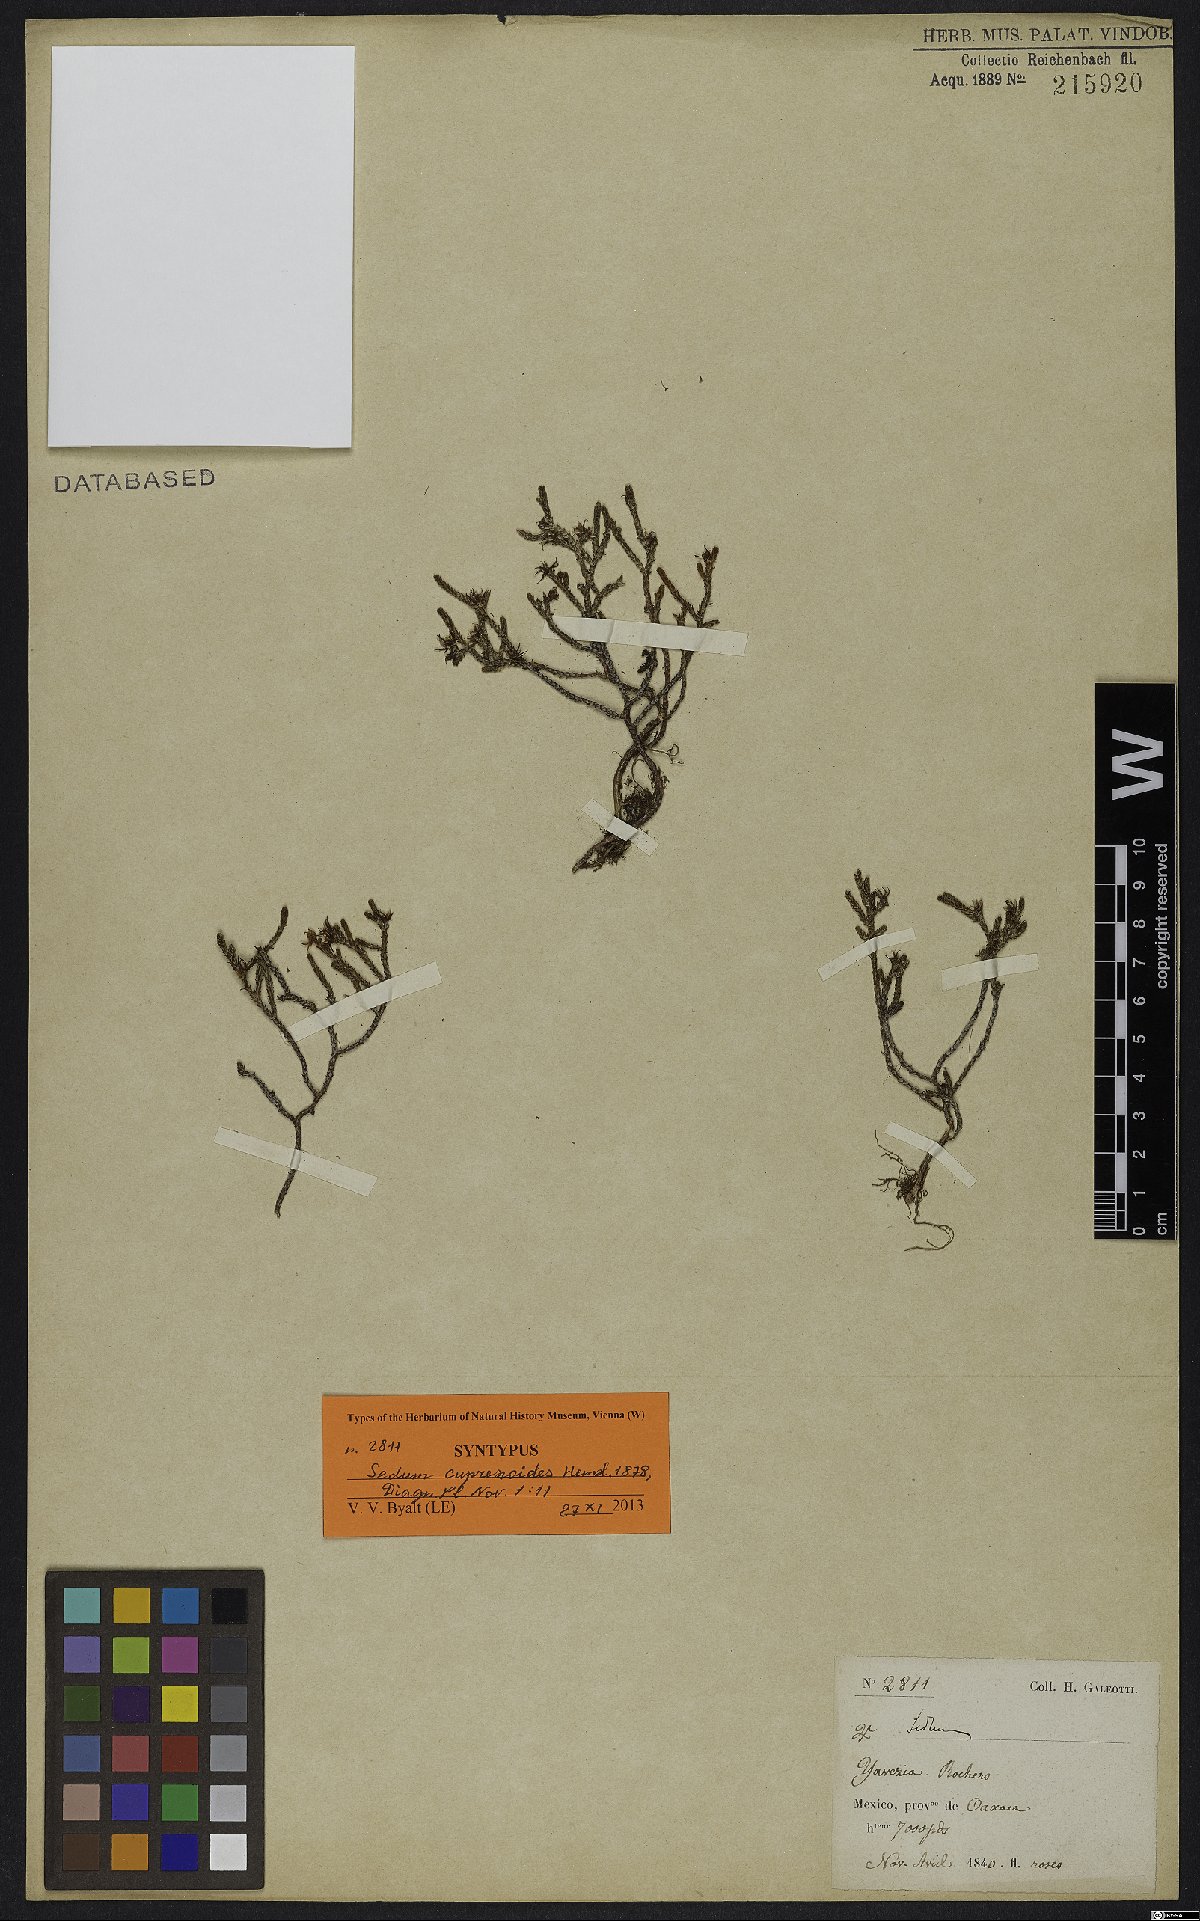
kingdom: Plantae
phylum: Tracheophyta
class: Magnoliopsida
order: Saxifragales
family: Crassulaceae
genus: Sedum
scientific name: Sedum cupressoides
